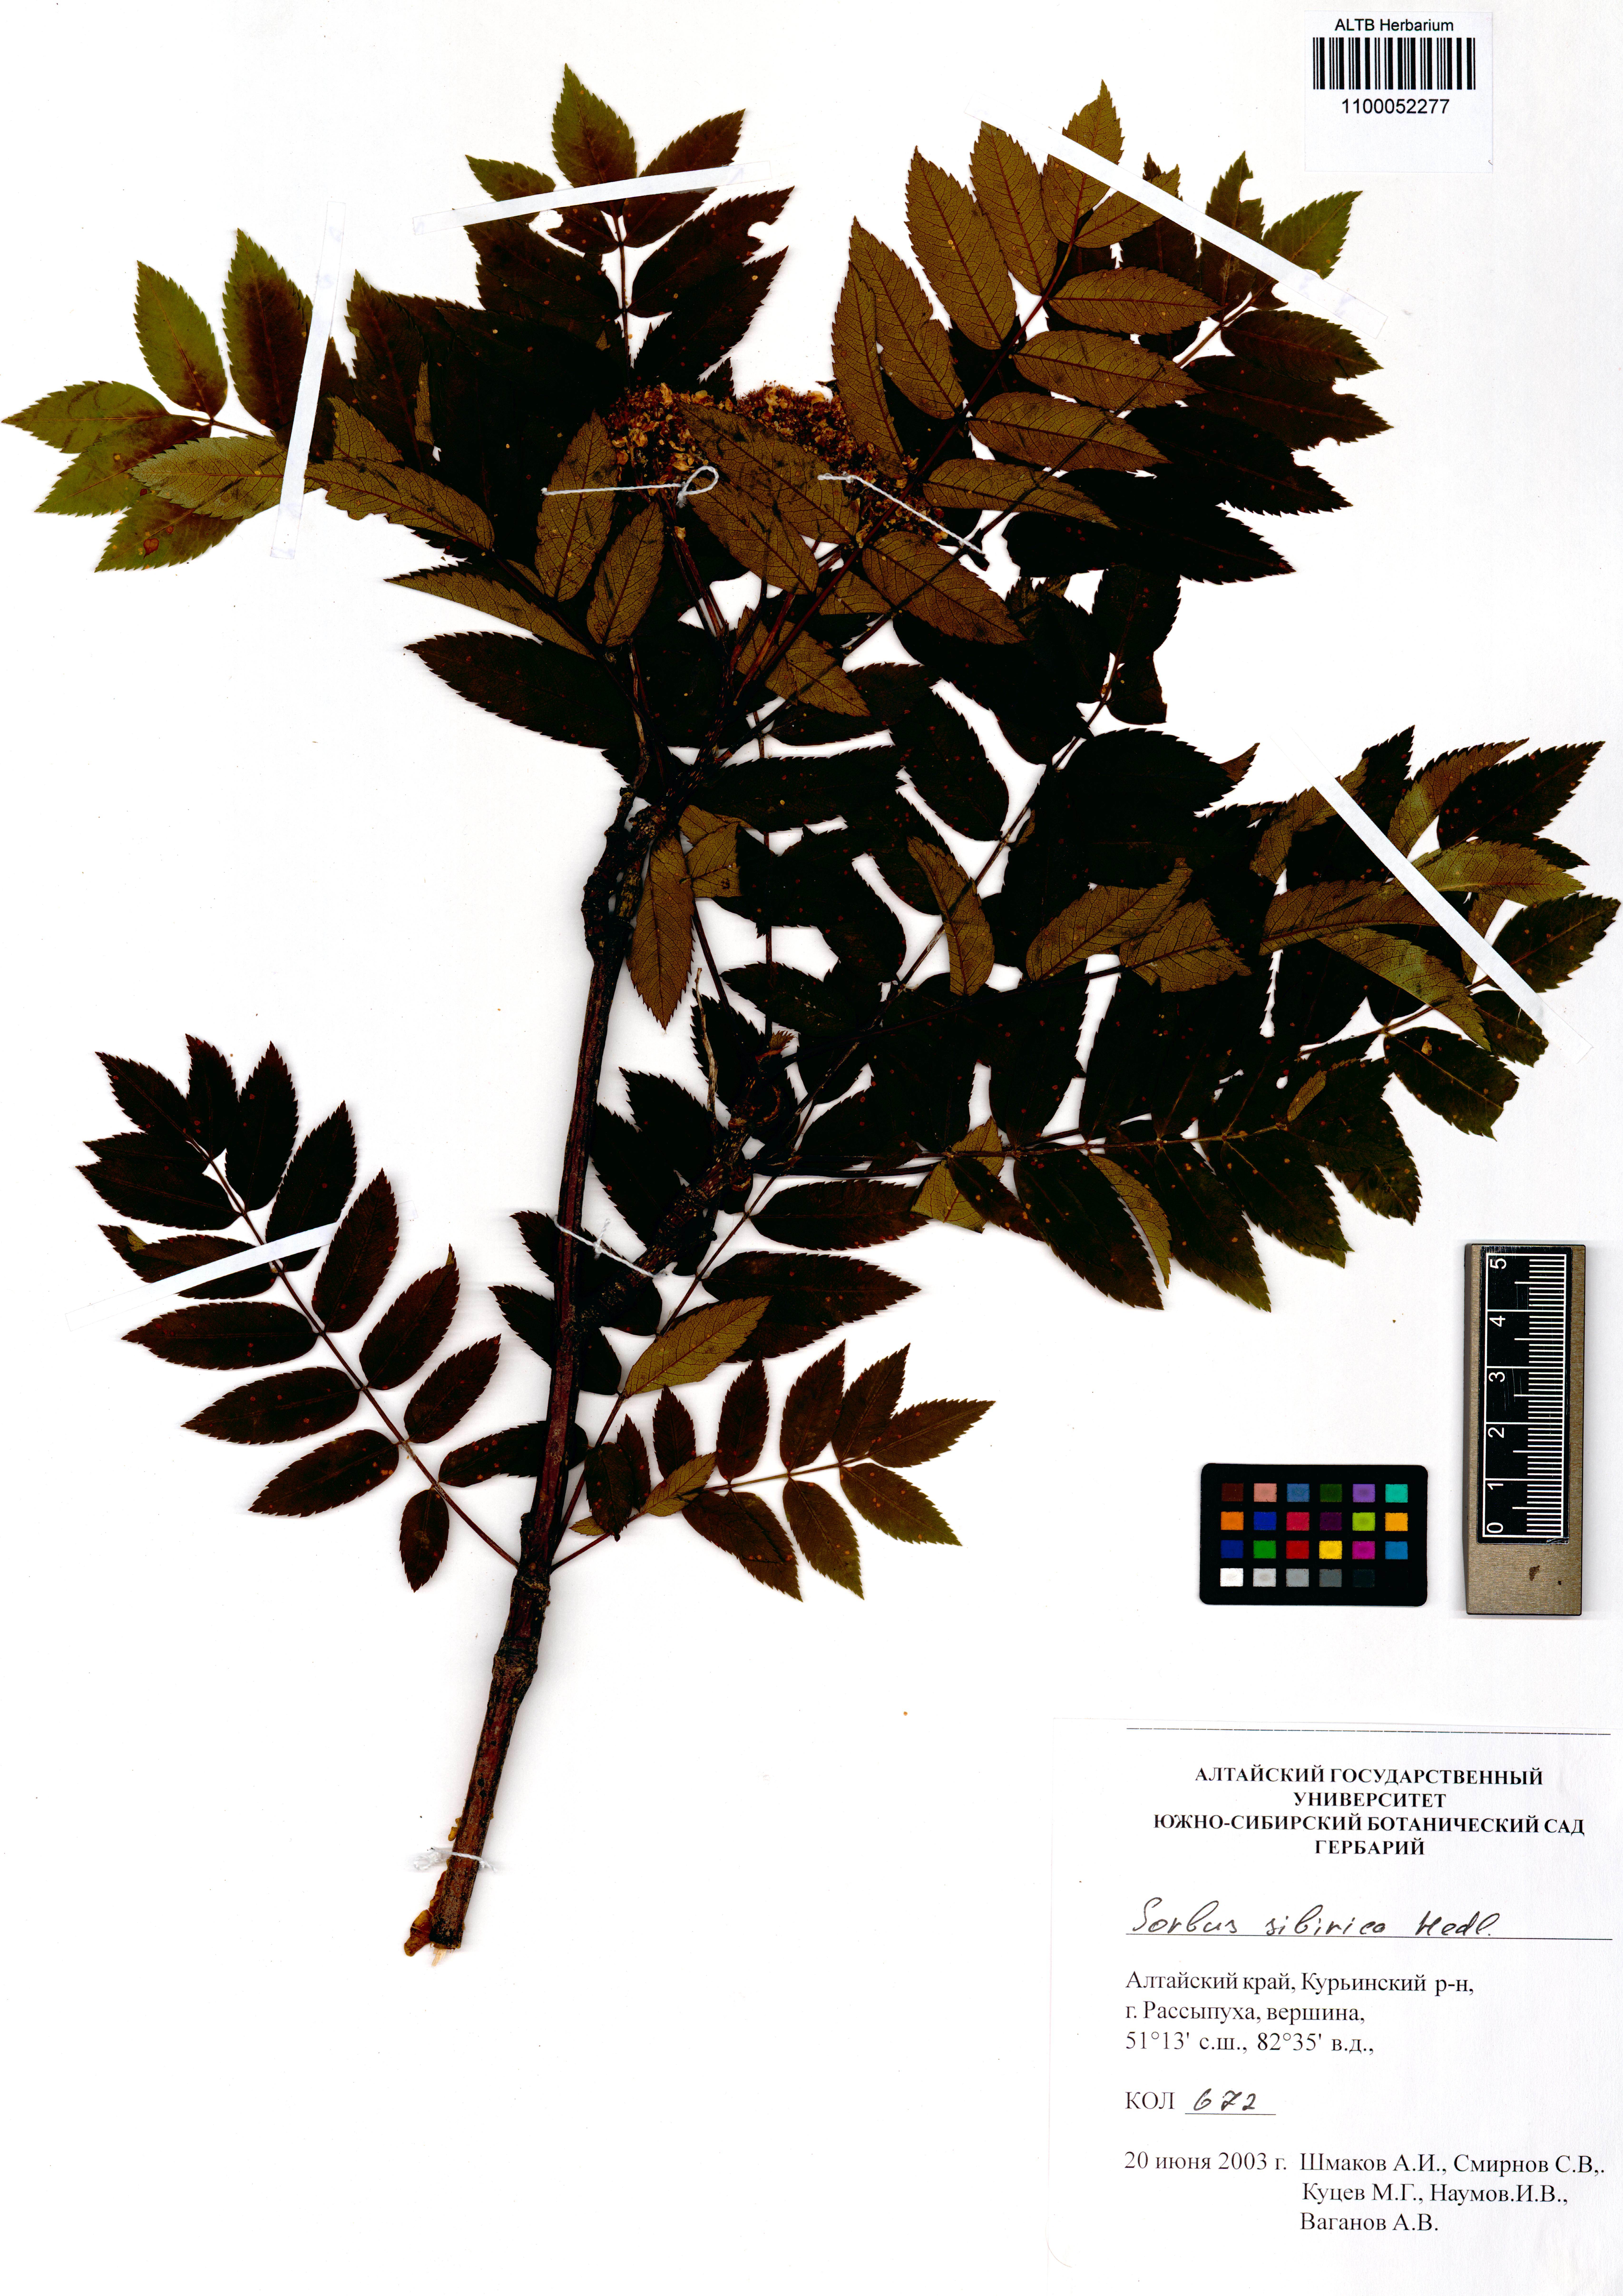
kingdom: Plantae
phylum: Tracheophyta
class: Magnoliopsida
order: Rosales
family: Rosaceae
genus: Sorbus
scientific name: Sorbus aucuparia
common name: Rowan
